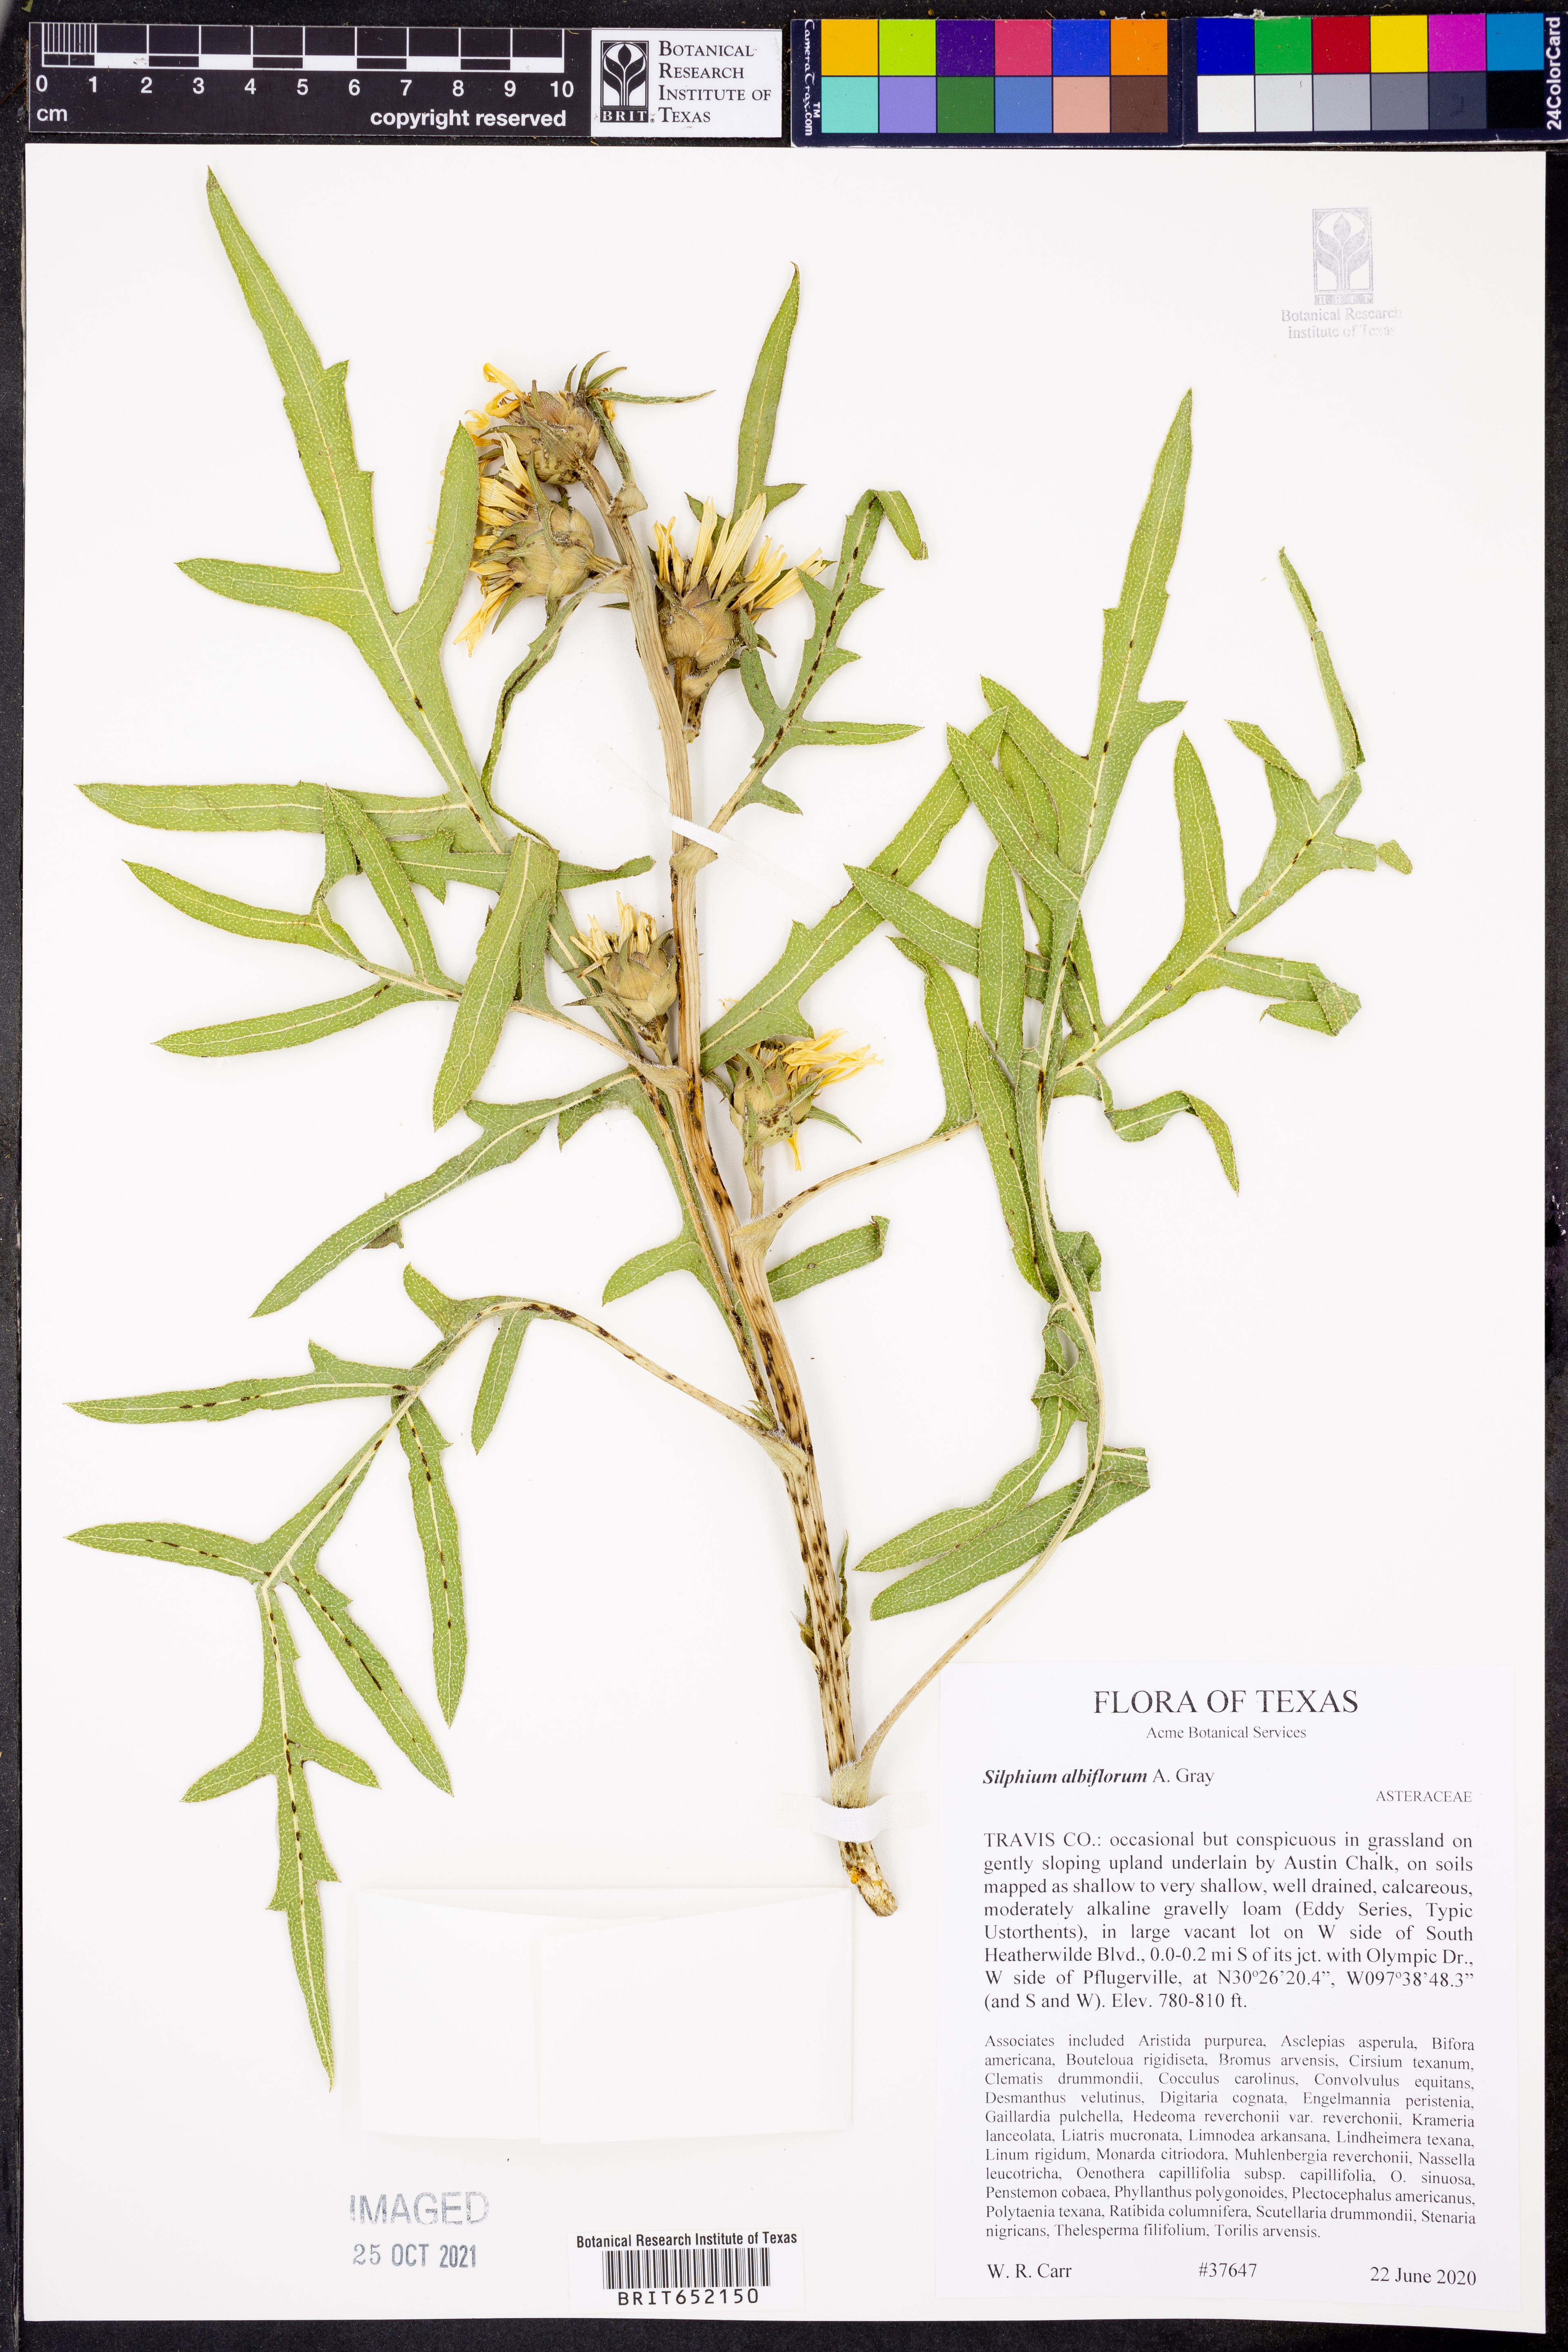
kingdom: Plantae
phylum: Tracheophyta
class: Magnoliopsida
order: Asterales
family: Asteraceae
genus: Silphium
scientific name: Silphium albiflorum
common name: White rosinweed
